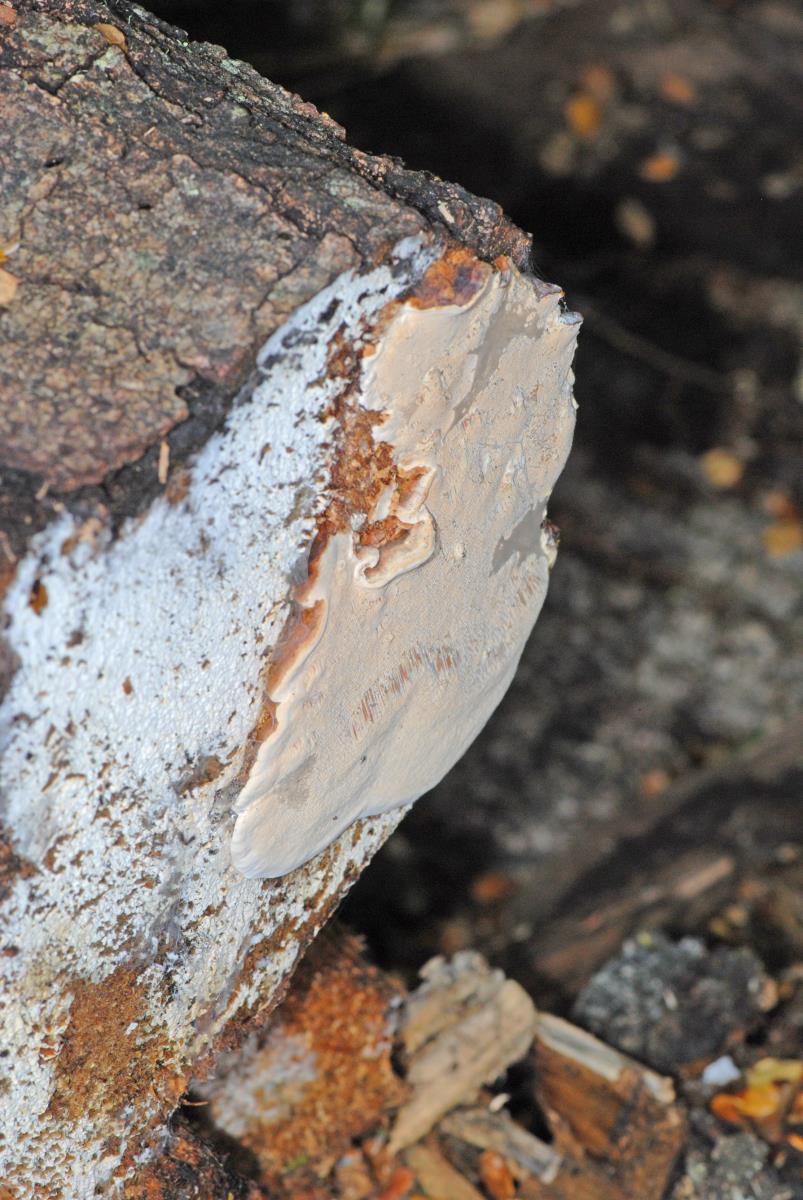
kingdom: Fungi
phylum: Basidiomycota
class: Agaricomycetes
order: Polyporales
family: Polyporaceae
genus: Australoporus
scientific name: Australoporus tasmanicus
